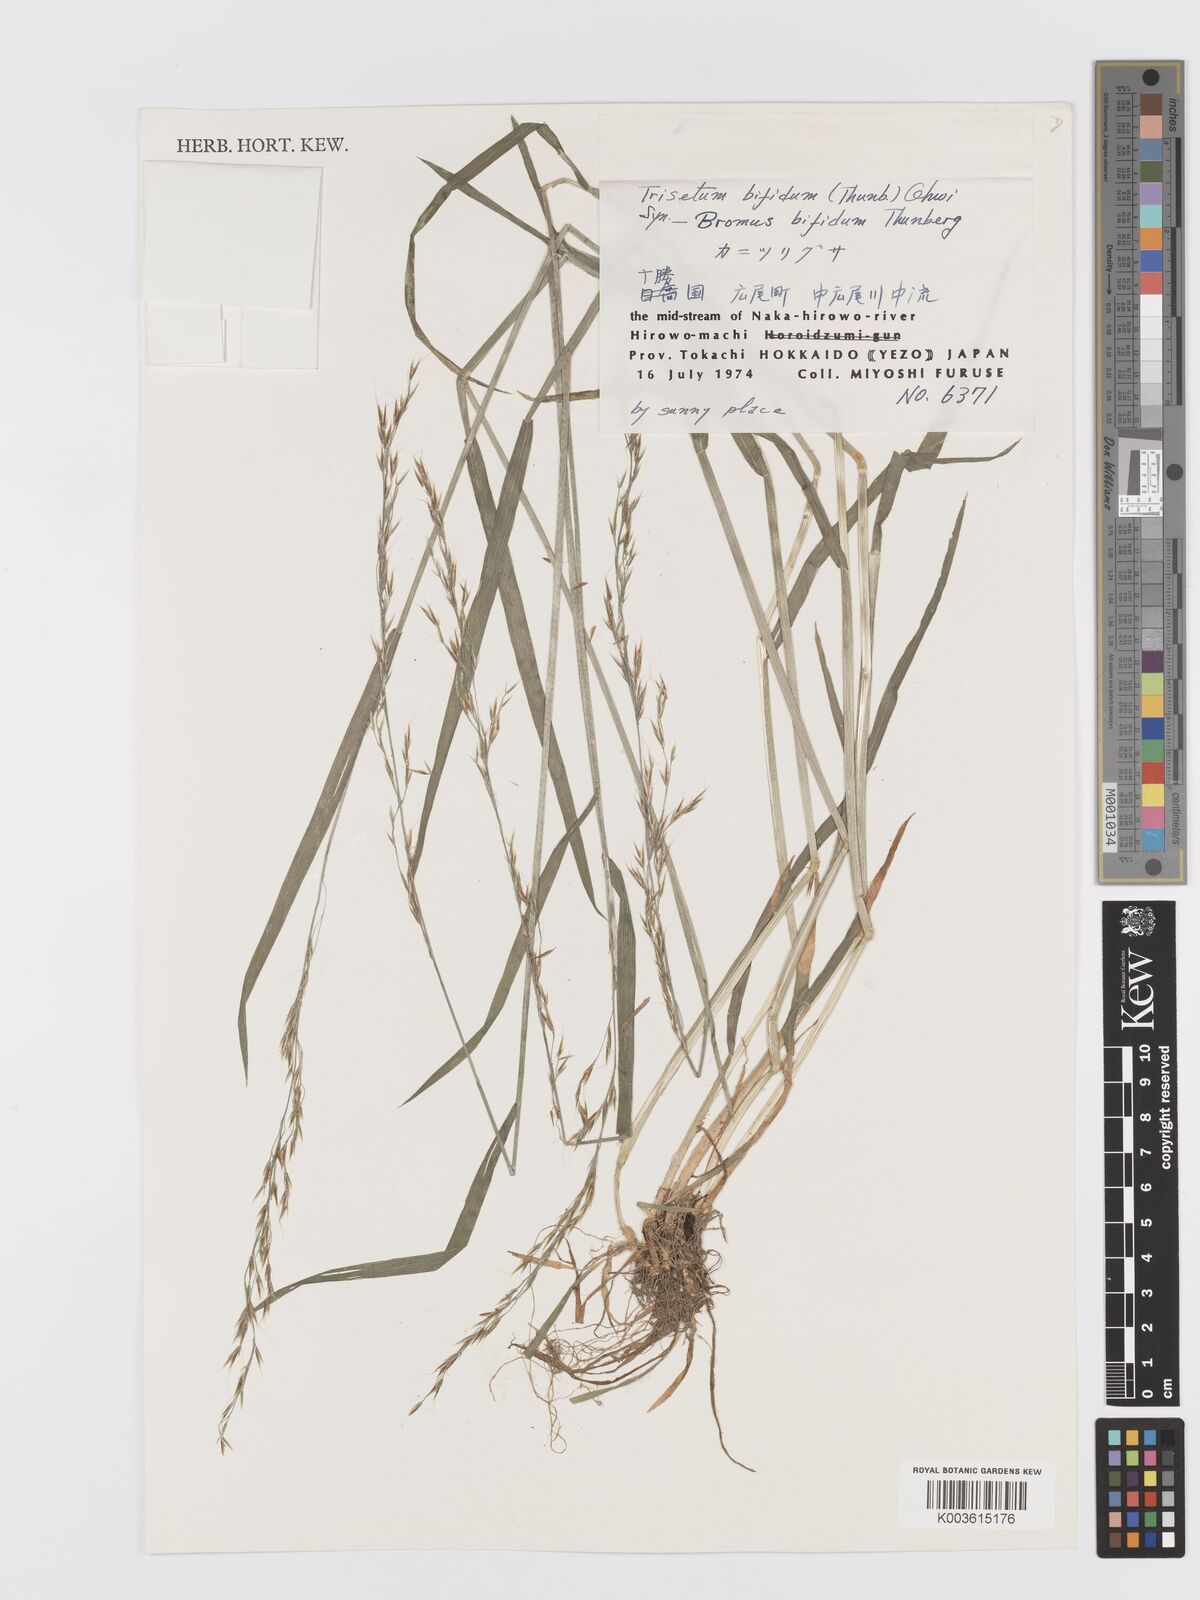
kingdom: Plantae
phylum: Tracheophyta
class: Liliopsida
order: Poales
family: Poaceae
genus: Sibirotrisetum
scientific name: Sibirotrisetum bifidum
